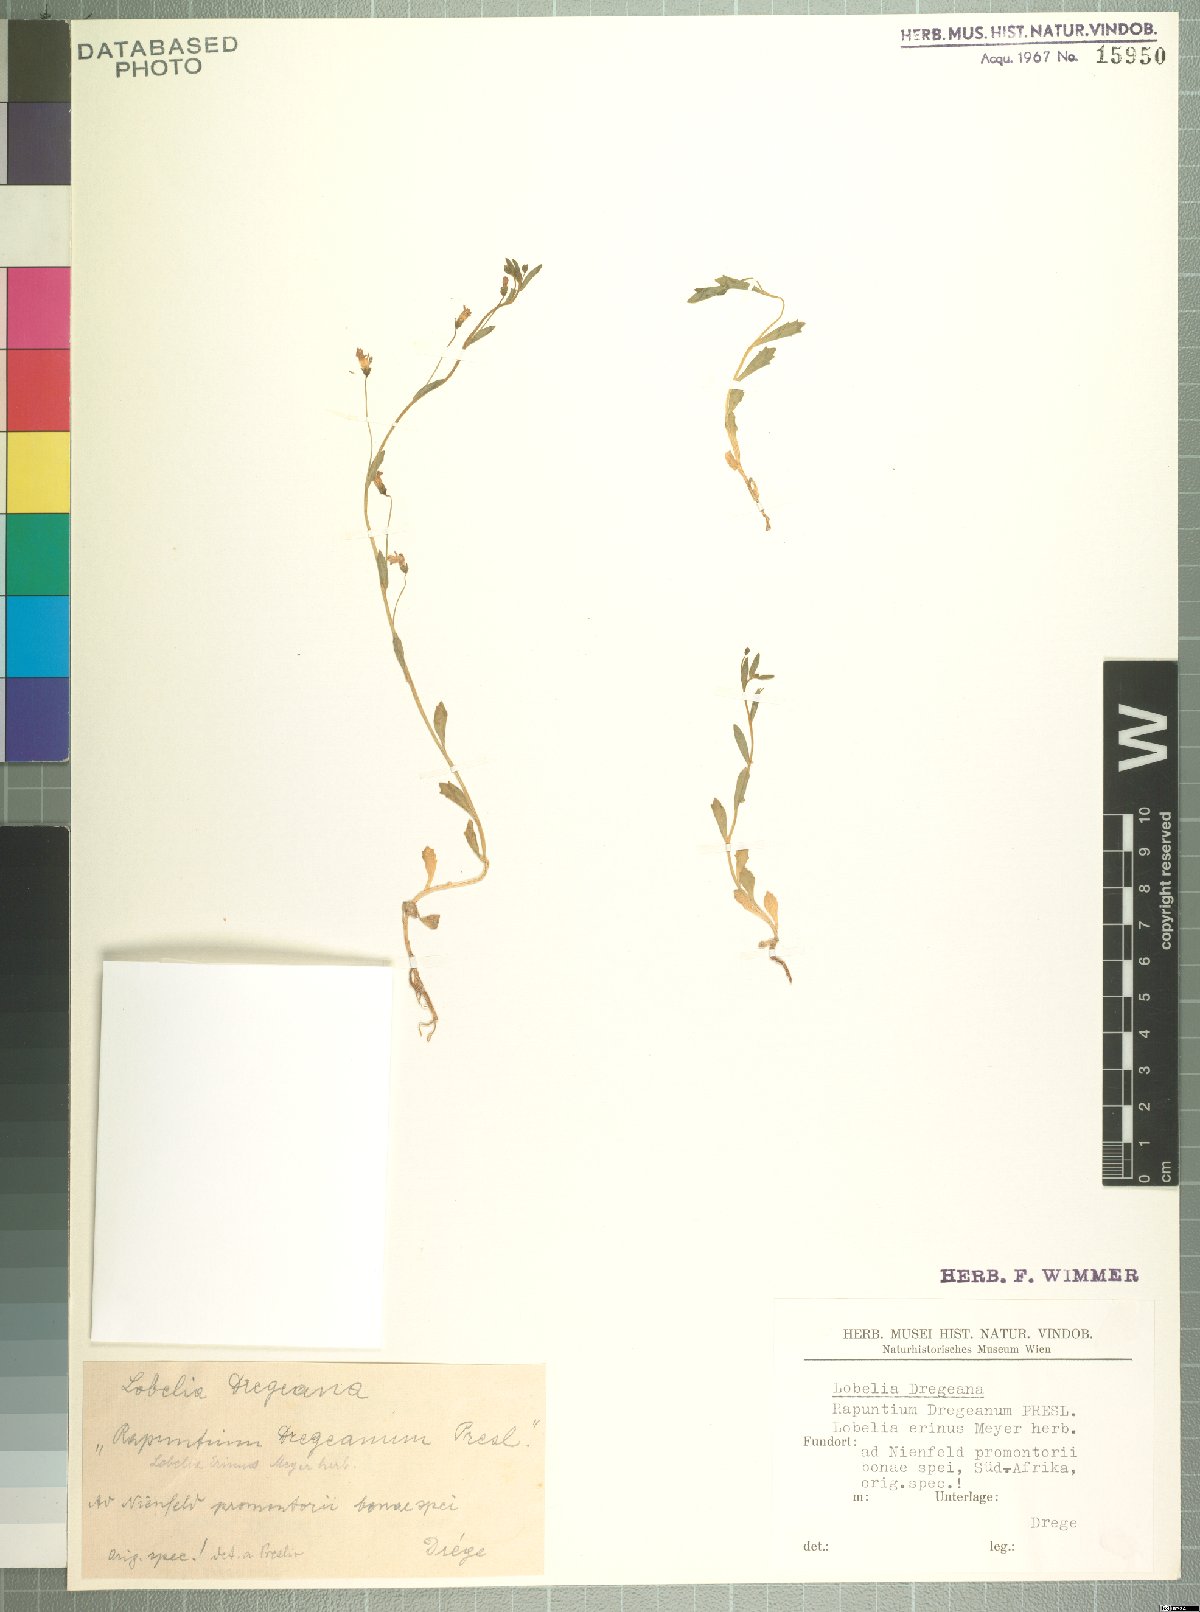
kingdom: Plantae
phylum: Tracheophyta
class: Magnoliopsida
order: Asterales
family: Campanulaceae
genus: Lobelia
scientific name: Lobelia dregeana
